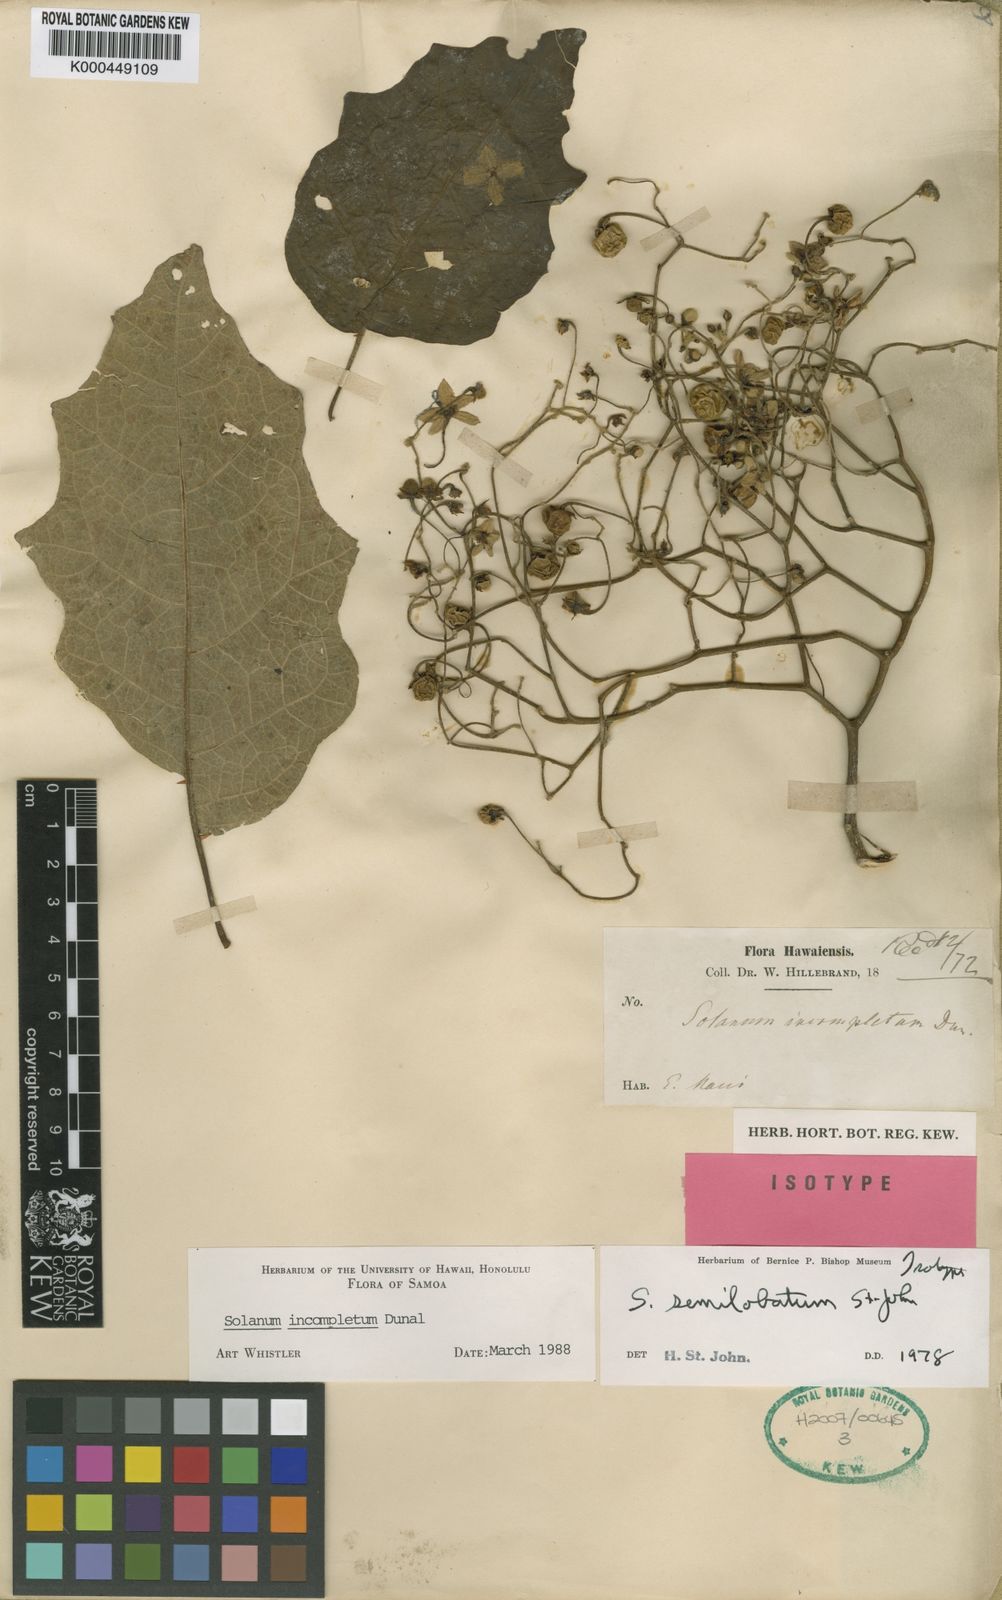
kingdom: Plantae
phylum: Tracheophyta
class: Magnoliopsida
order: Solanales
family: Solanaceae
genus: Solanum
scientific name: Solanum hillebrandii
